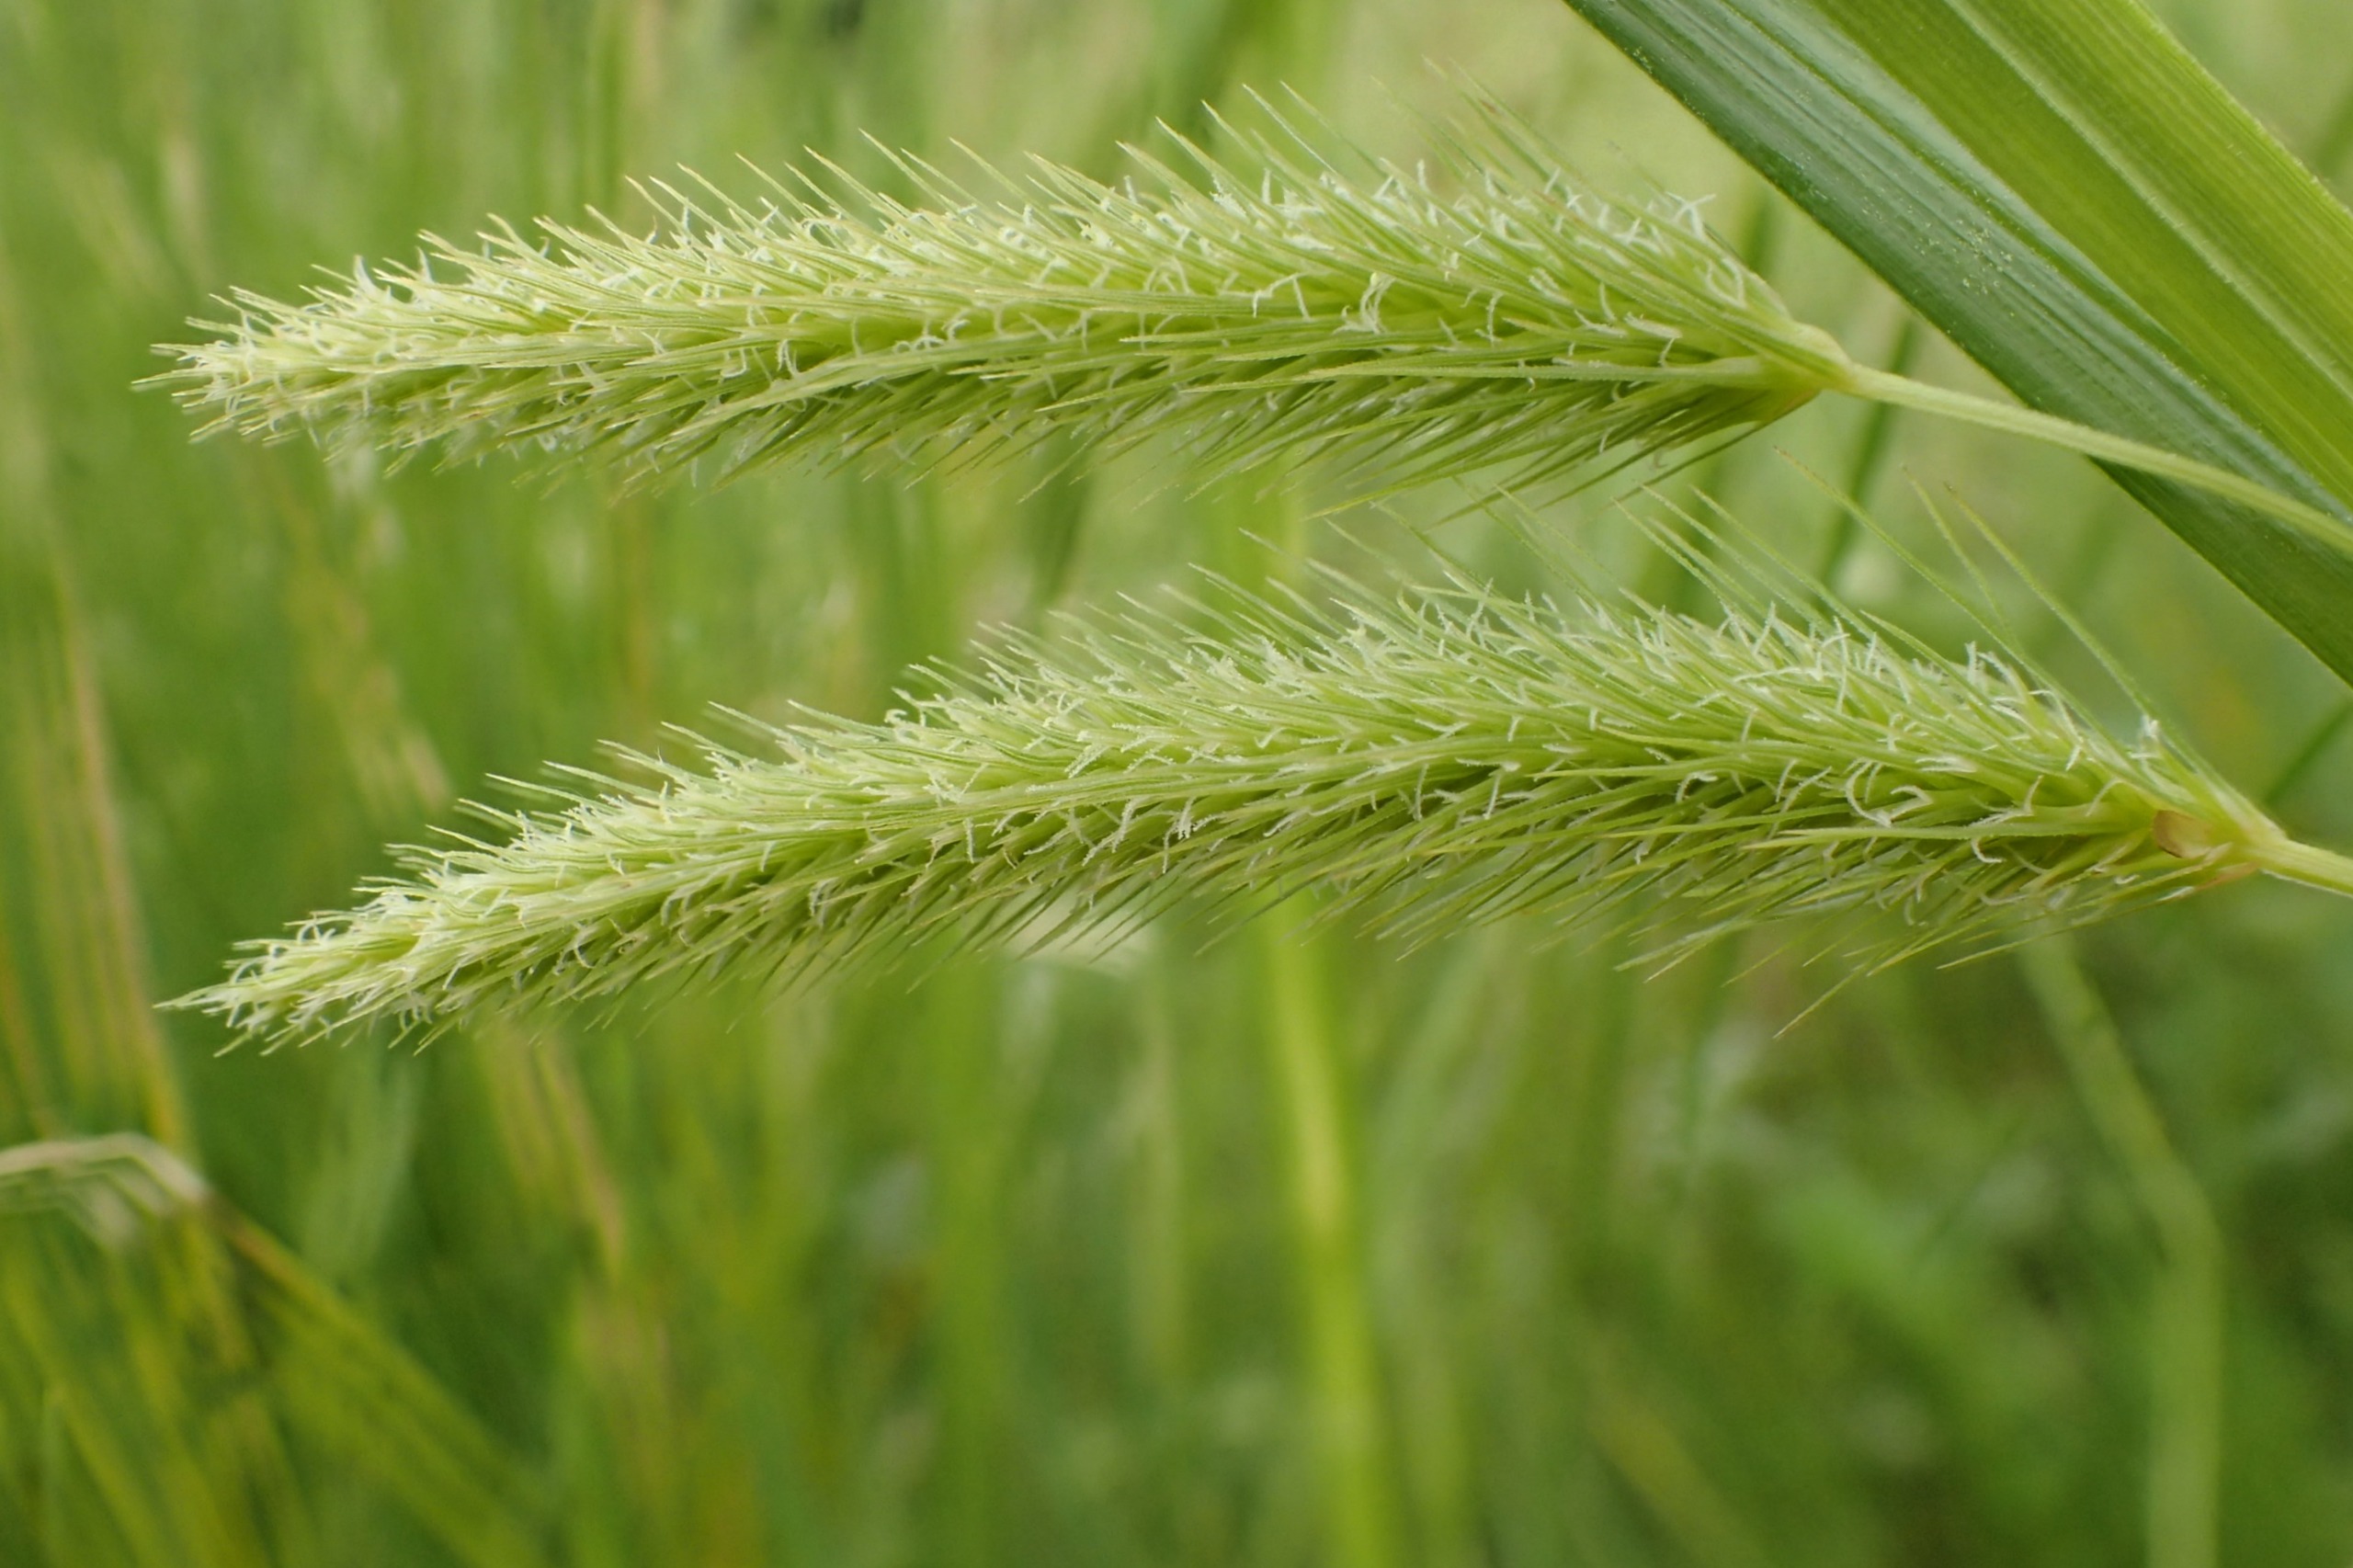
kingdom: Plantae
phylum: Tracheophyta
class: Liliopsida
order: Poales
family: Cyperaceae
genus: Carex
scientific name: Carex pseudocyperus
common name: Knippe-star
